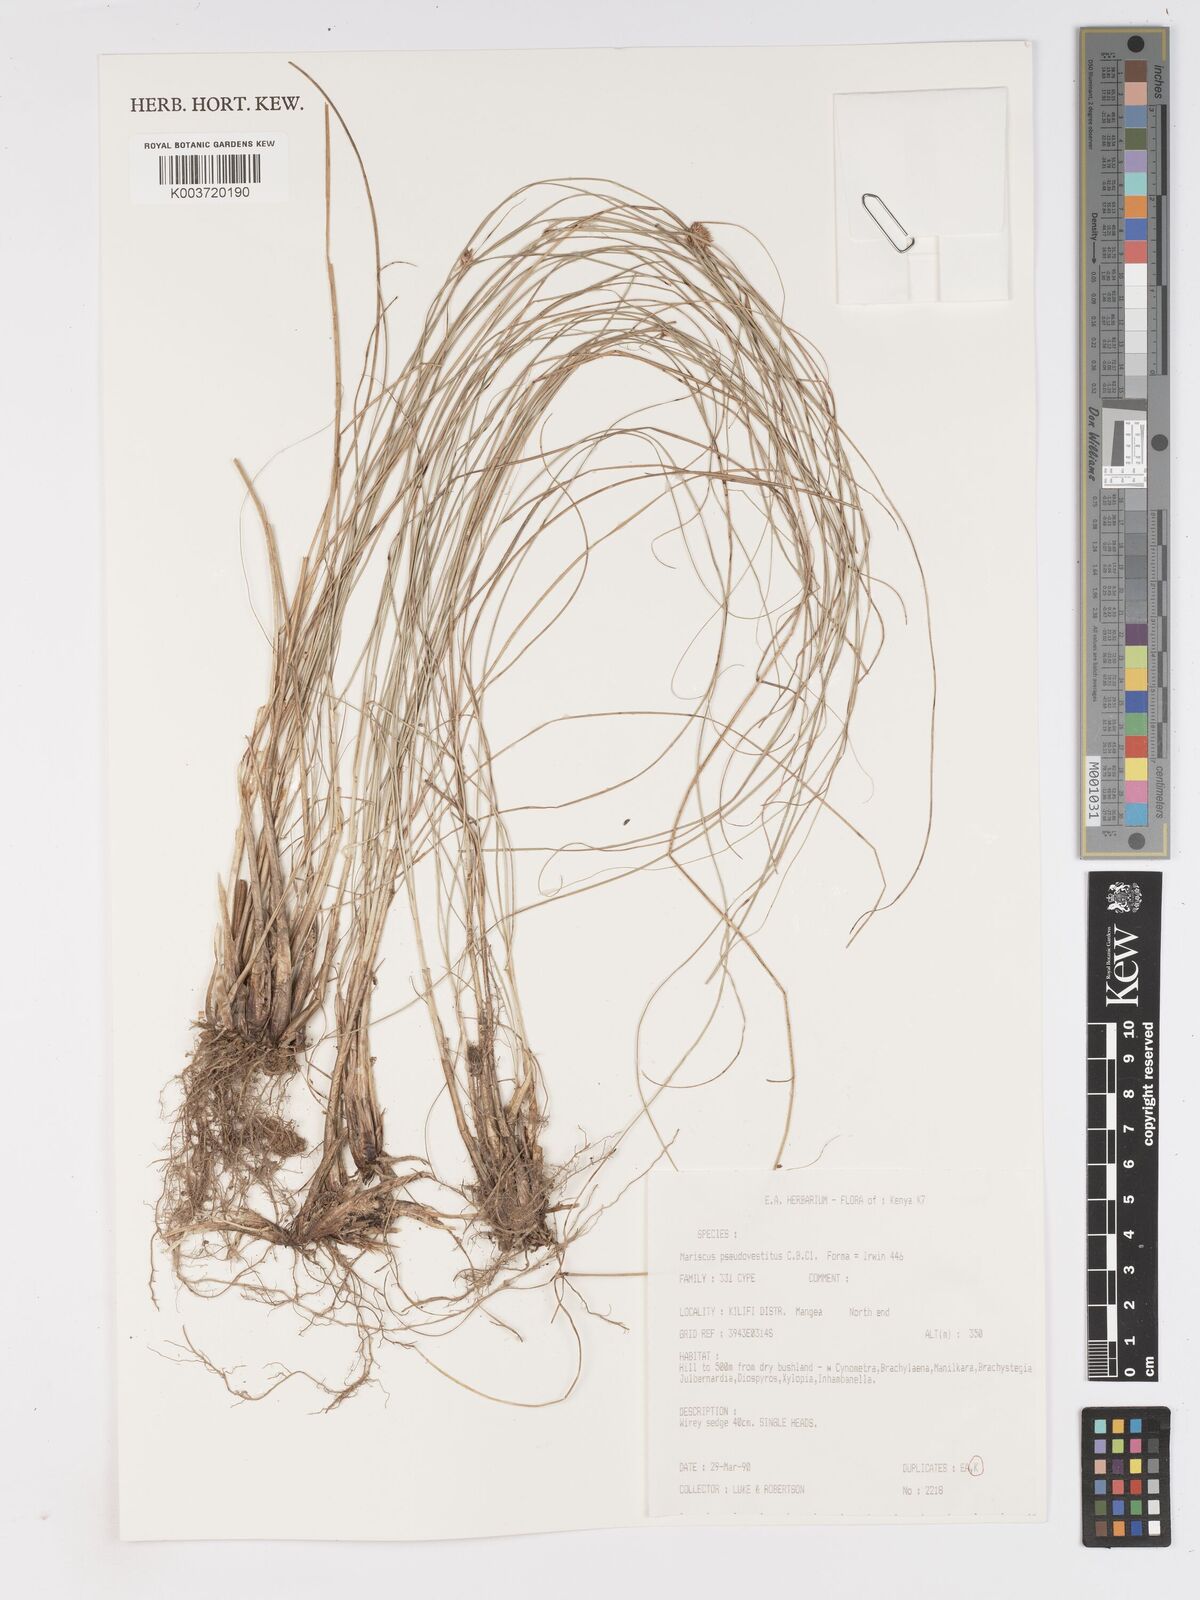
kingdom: Plantae
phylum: Tracheophyta
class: Liliopsida
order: Poales
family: Cyperaceae
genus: Cyperus
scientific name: Cyperus pseudovestitus
